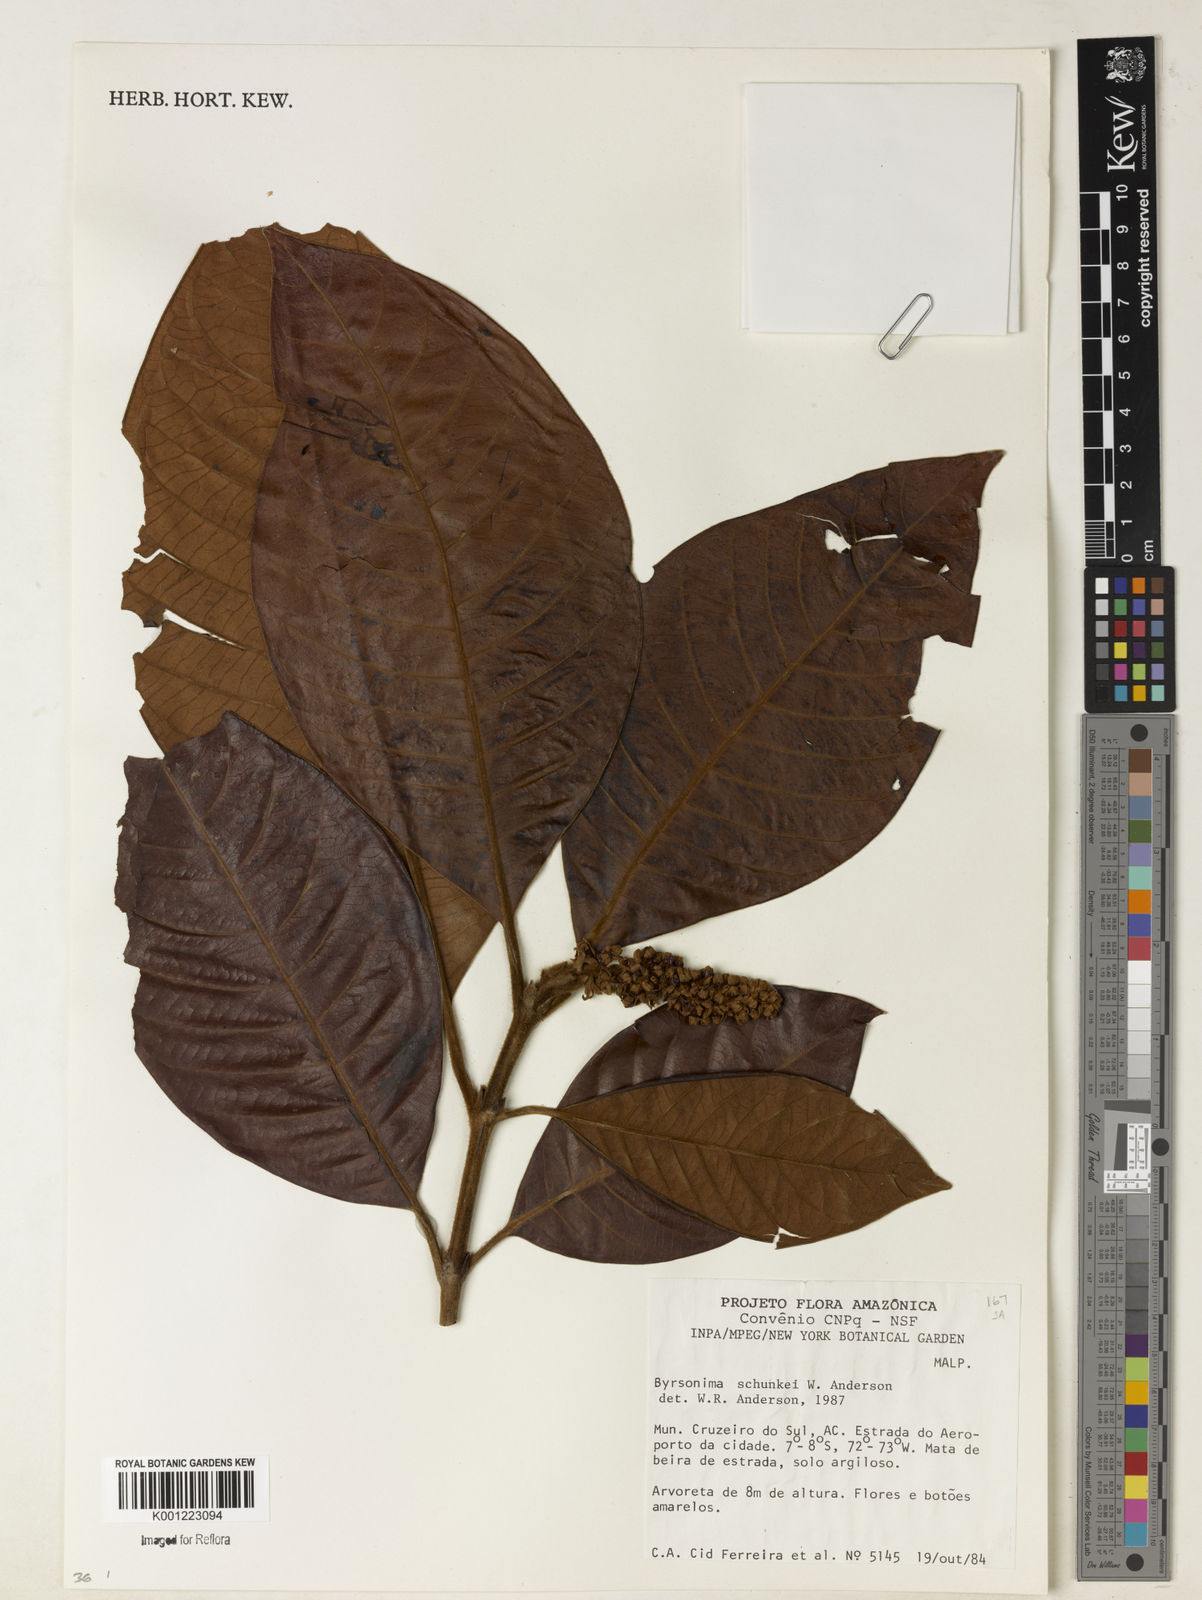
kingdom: Plantae
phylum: Tracheophyta
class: Magnoliopsida
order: Malpighiales
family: Malpighiaceae
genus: Byrsonima
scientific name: Byrsonima schunkei
